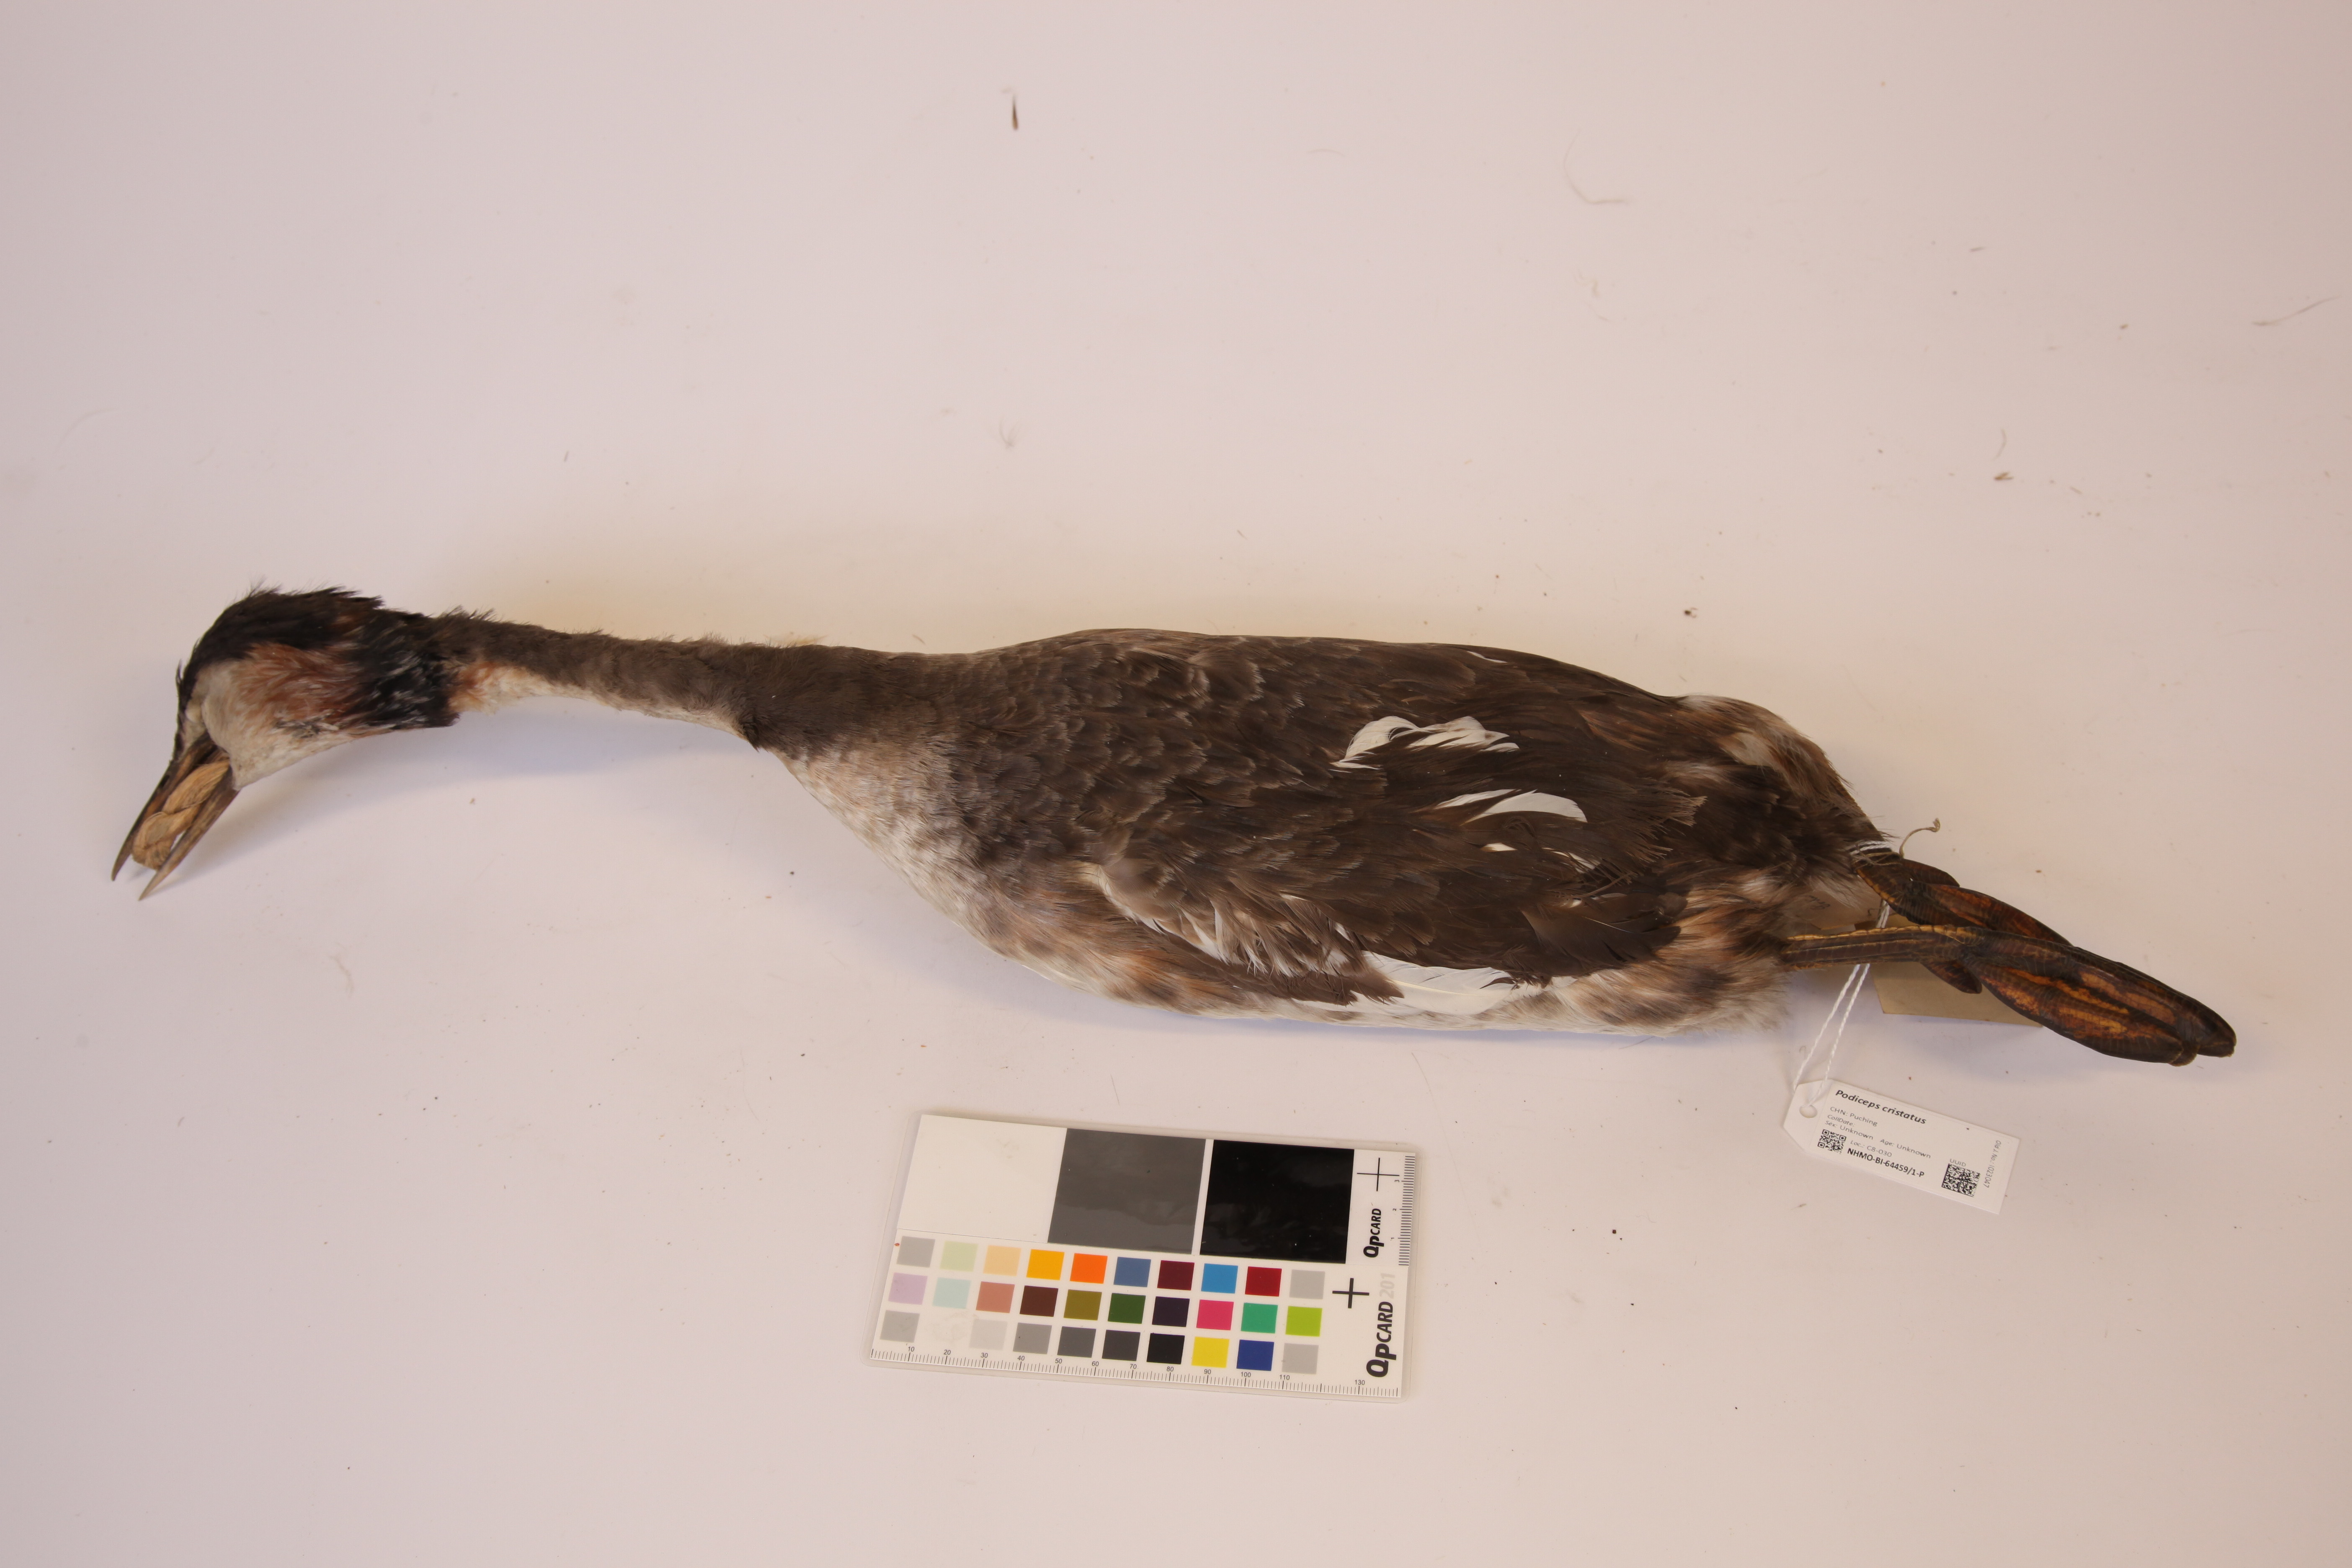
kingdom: Animalia
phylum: Chordata
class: Aves
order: Podicipediformes
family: Podicipedidae
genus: Podiceps
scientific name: Podiceps cristatus
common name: Great crested grebe
